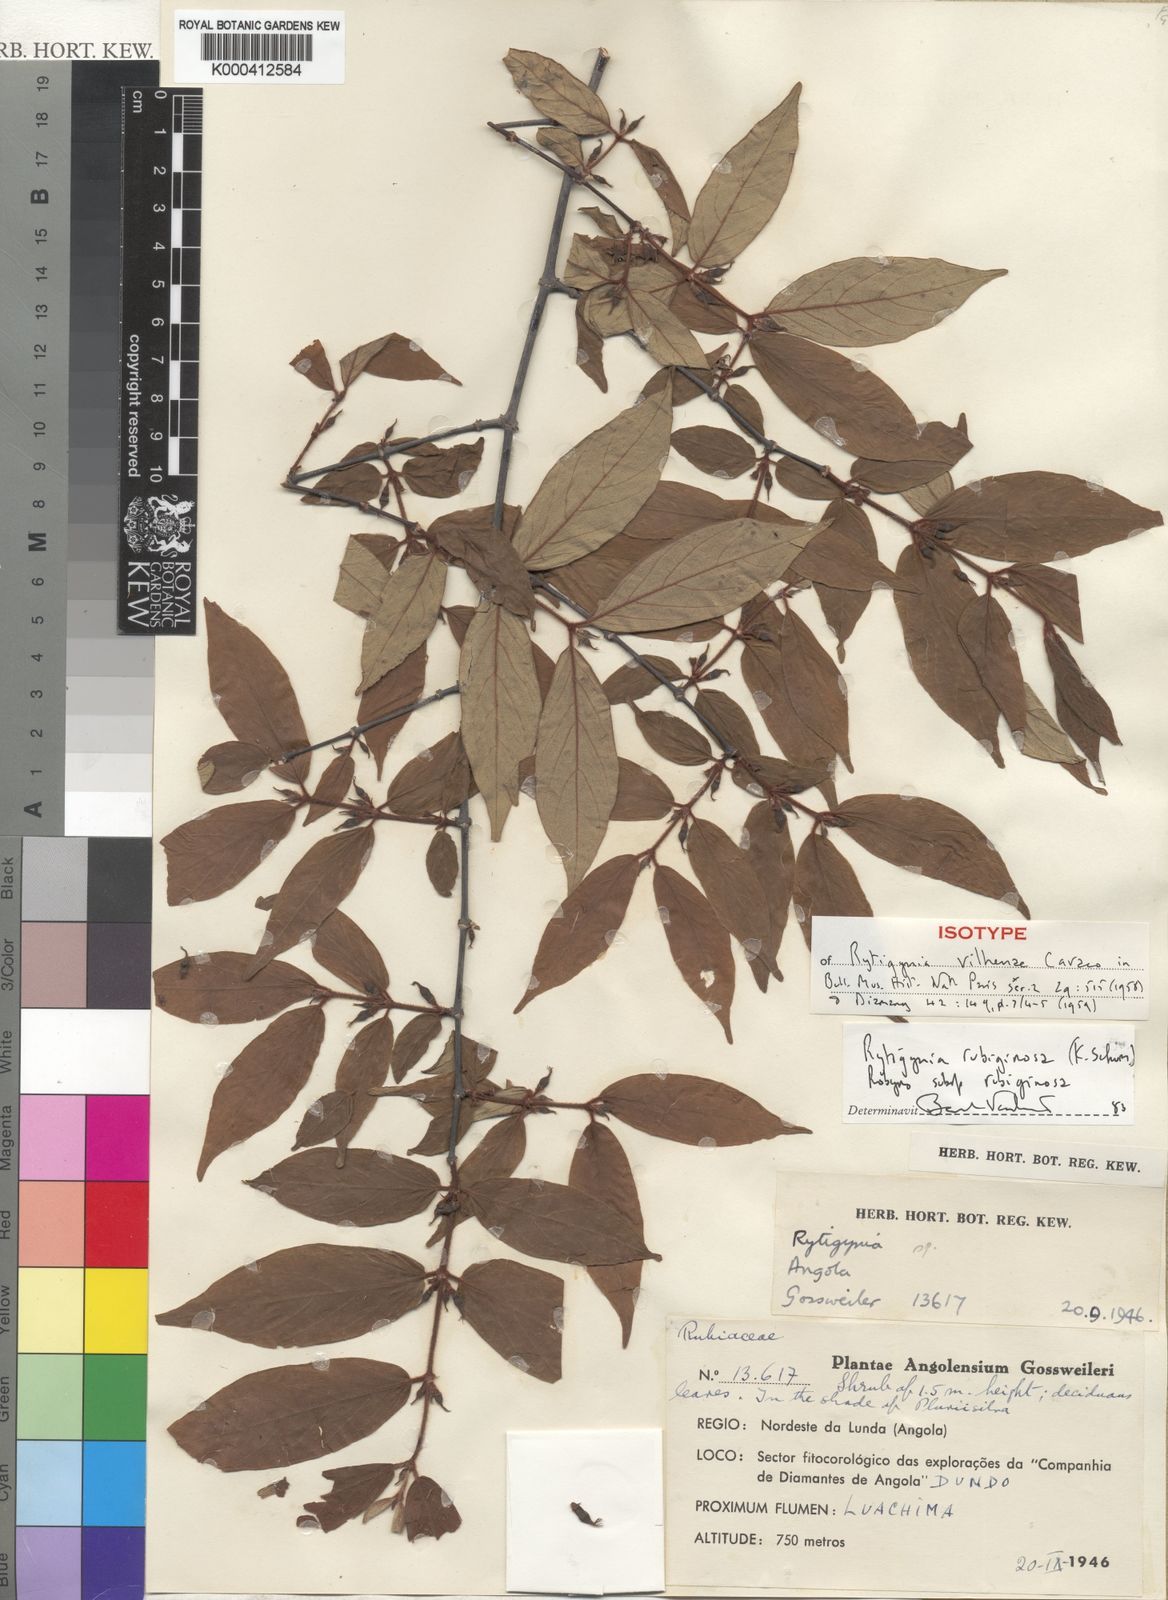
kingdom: Plantae
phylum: Tracheophyta
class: Magnoliopsida
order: Gentianales
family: Rubiaceae
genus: Rytigynia
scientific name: Rytigynia rubiginosa
